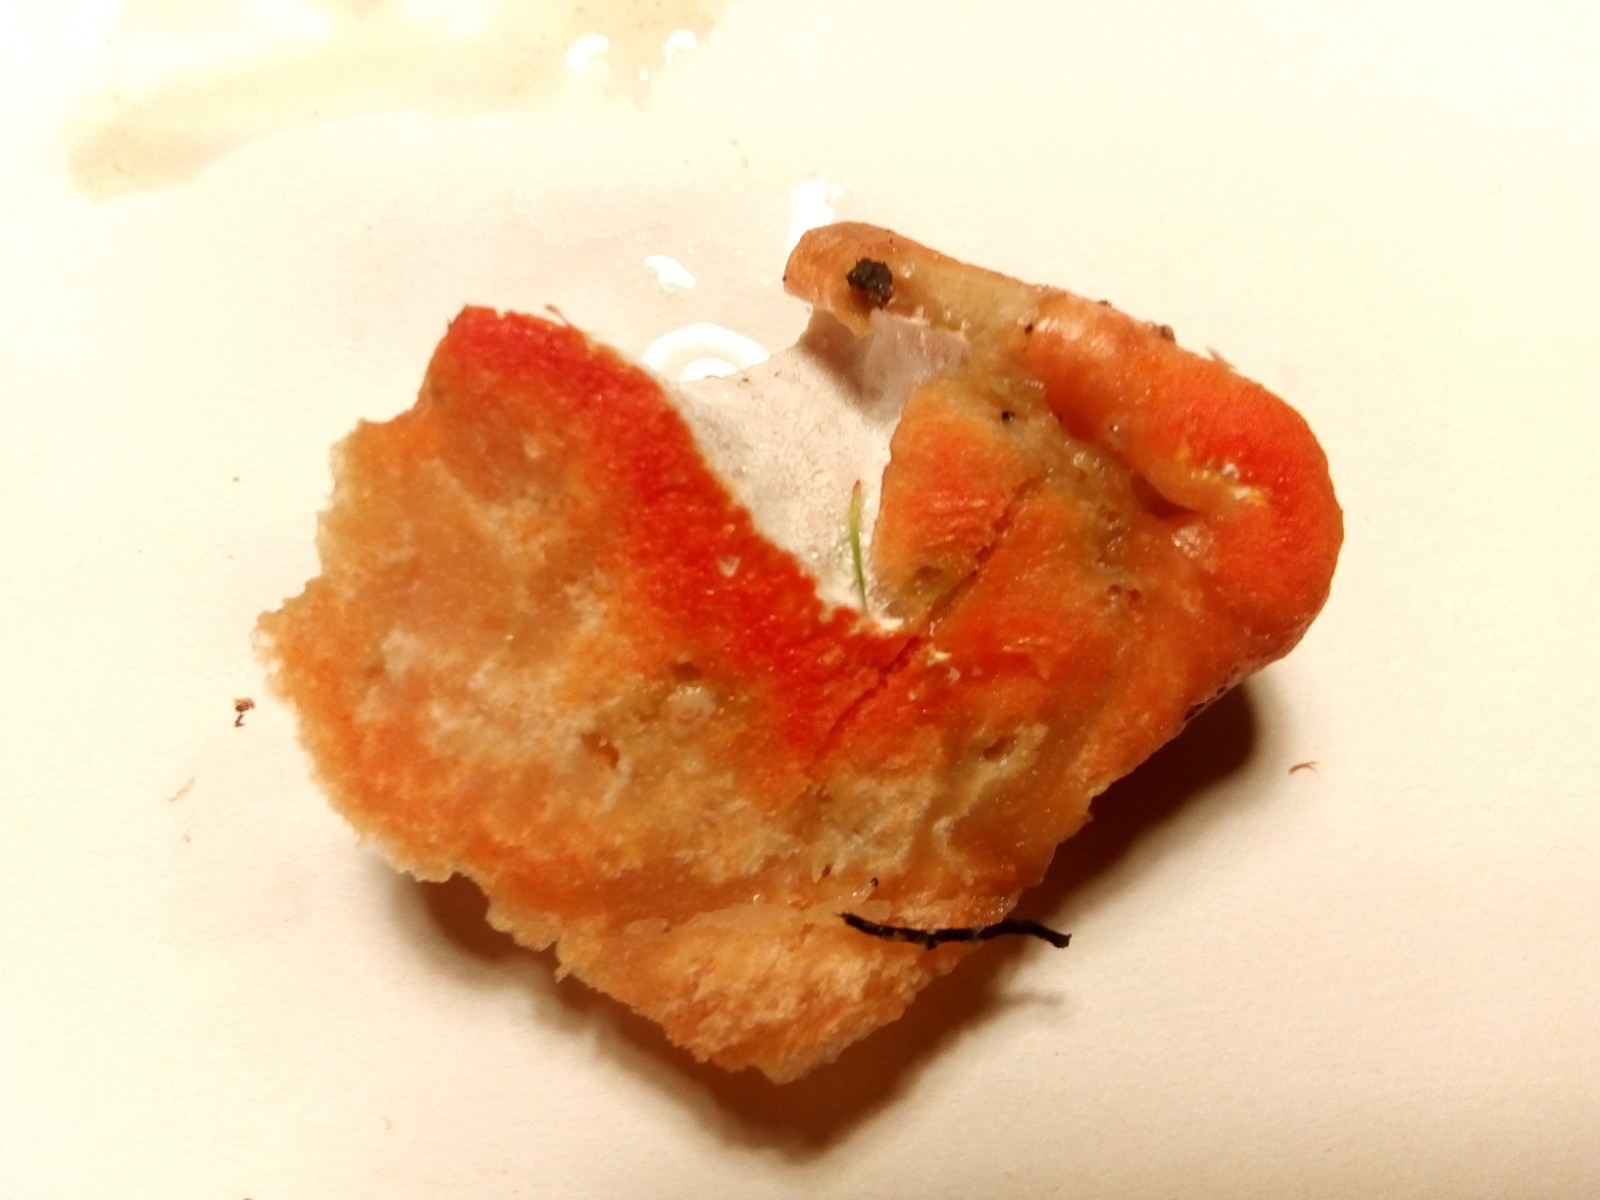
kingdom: Fungi
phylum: Ascomycota
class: Sordariomycetes
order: Hypocreales
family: Hypocreaceae
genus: Hypomyces
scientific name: Hypomyces lateritius
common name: mælkehat-snylteskorpe
